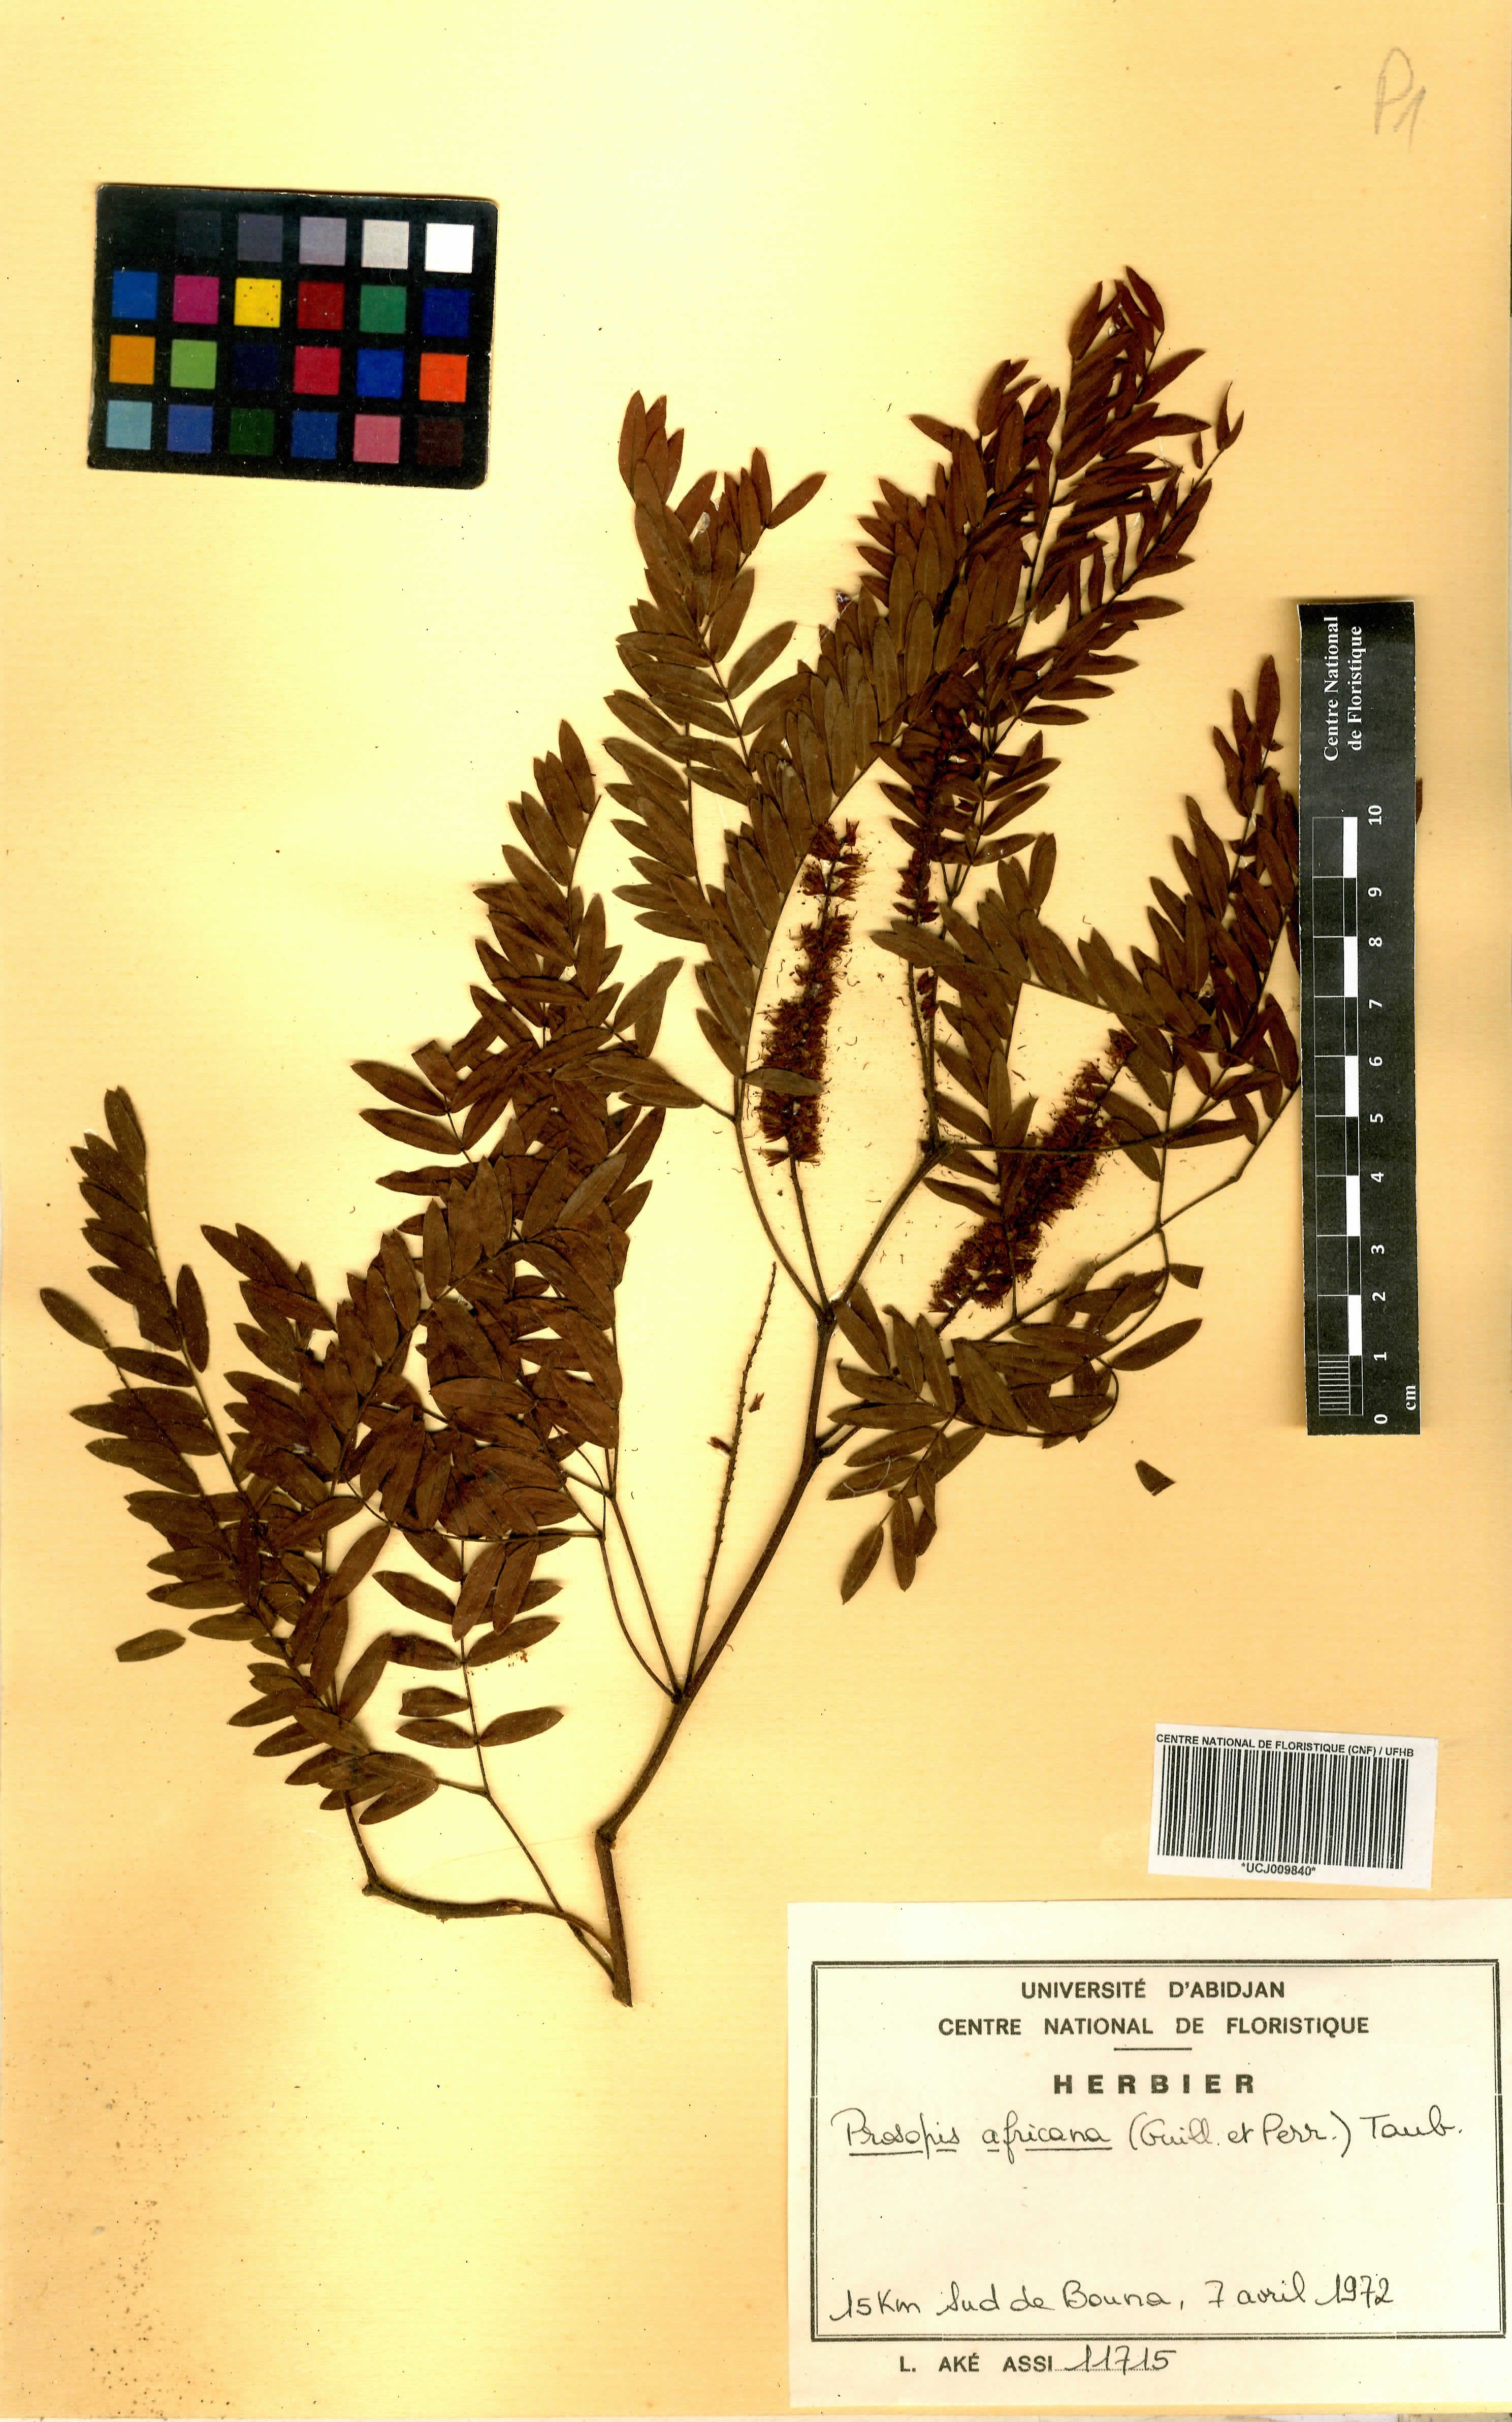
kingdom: Plantae
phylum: Tracheophyta
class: Magnoliopsida
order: Fabales
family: Fabaceae
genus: Prosopis
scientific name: Prosopis africana
